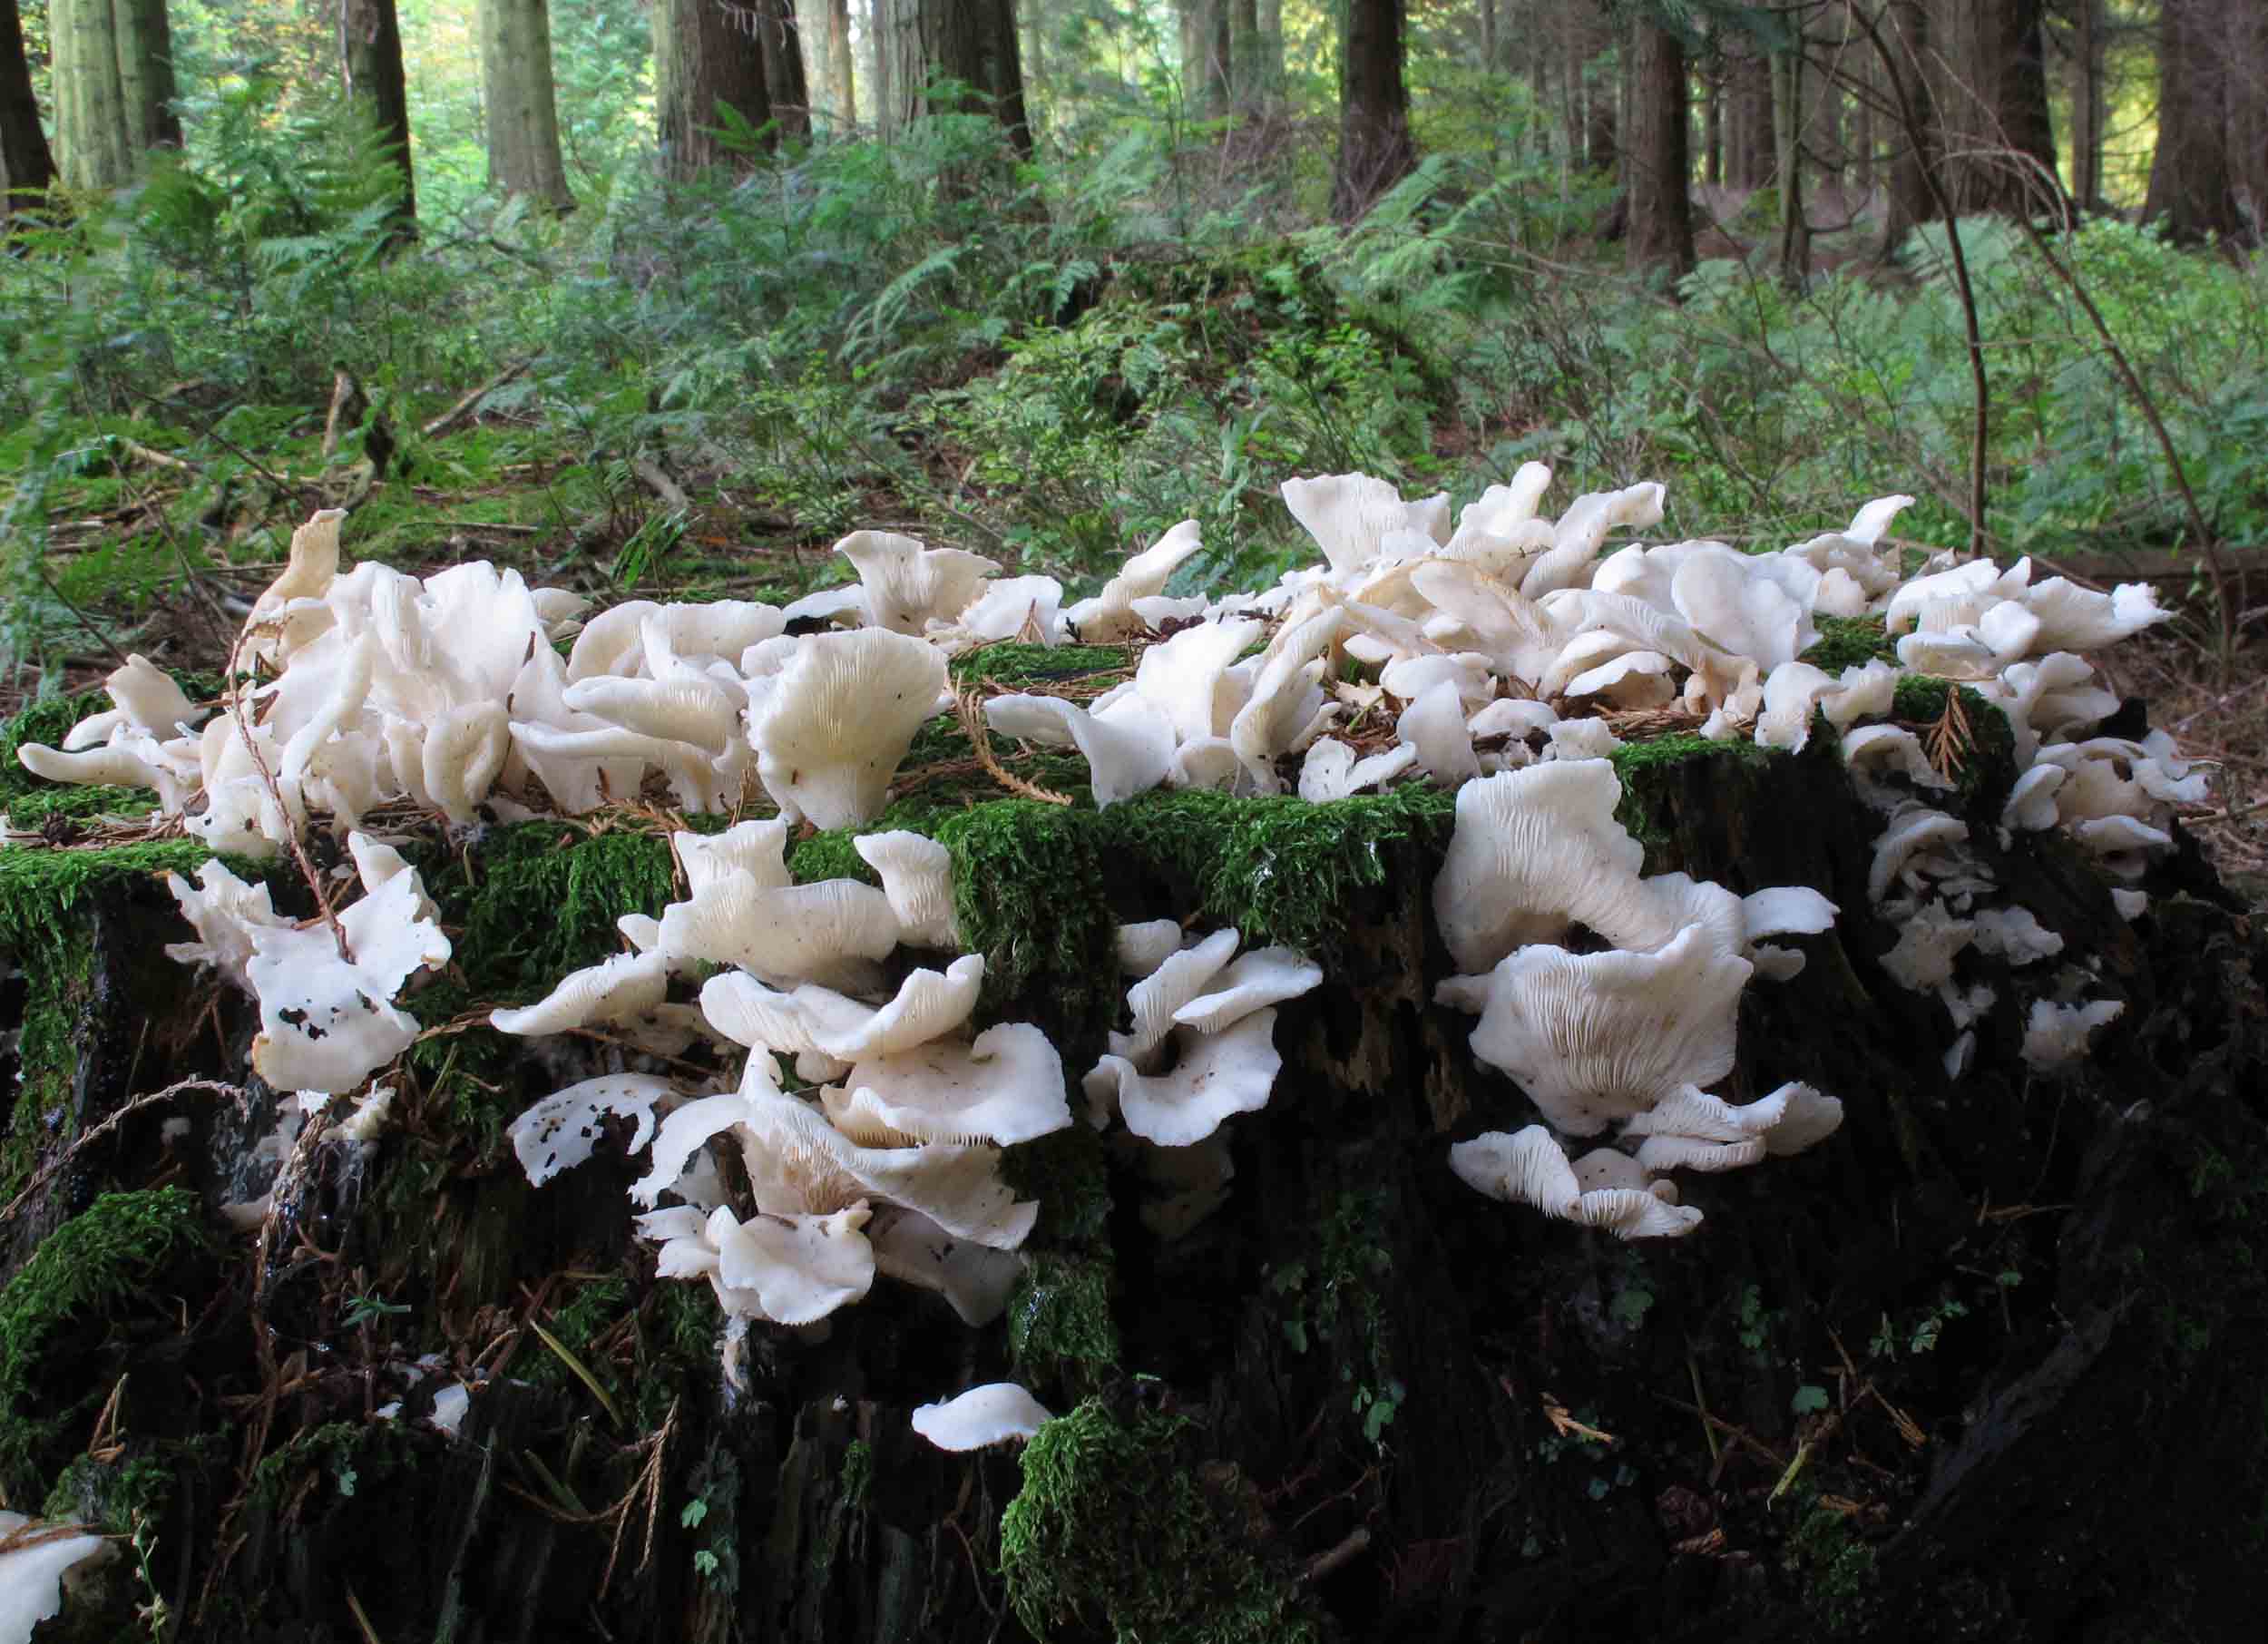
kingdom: Fungi
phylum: Basidiomycota
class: Agaricomycetes
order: Agaricales
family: Marasmiaceae
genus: Pleurocybella
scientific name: Pleurocybella porrigens
